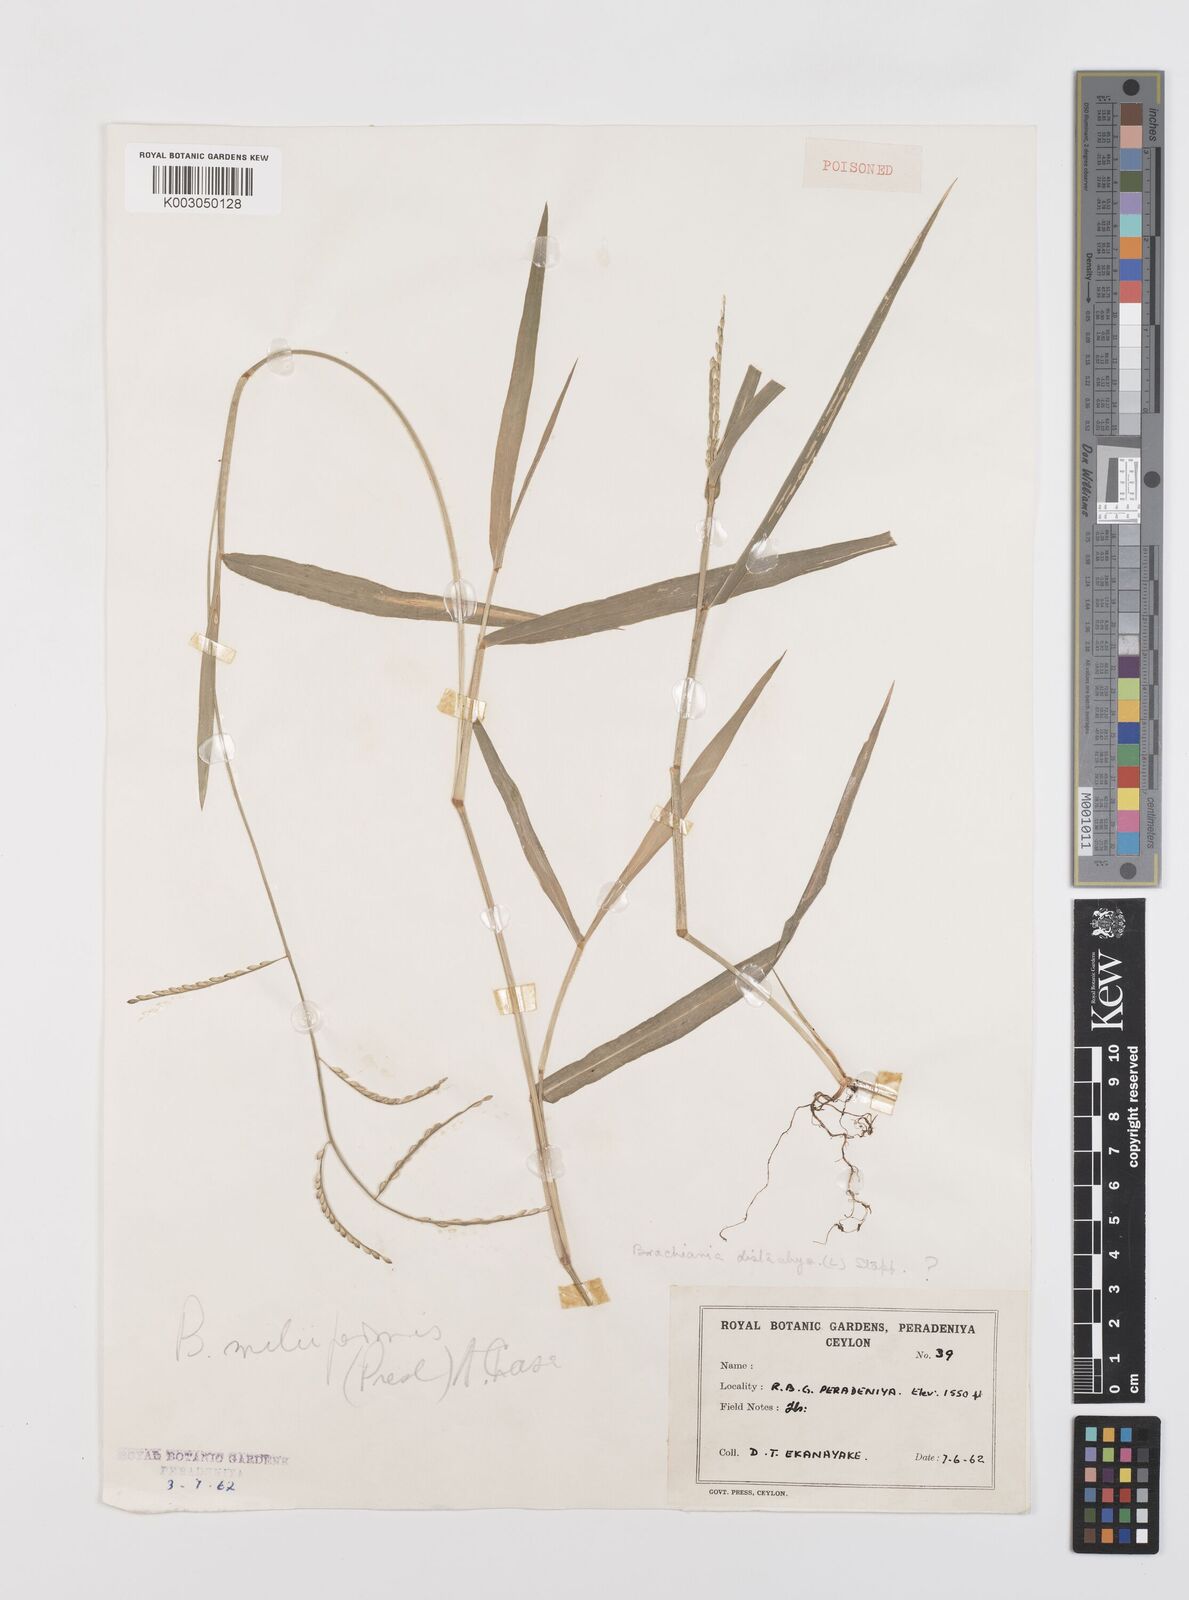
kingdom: Plantae
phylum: Tracheophyta
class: Liliopsida
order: Poales
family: Poaceae
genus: Urochloa
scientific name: Urochloa subquadripara
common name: Armgrass millet
